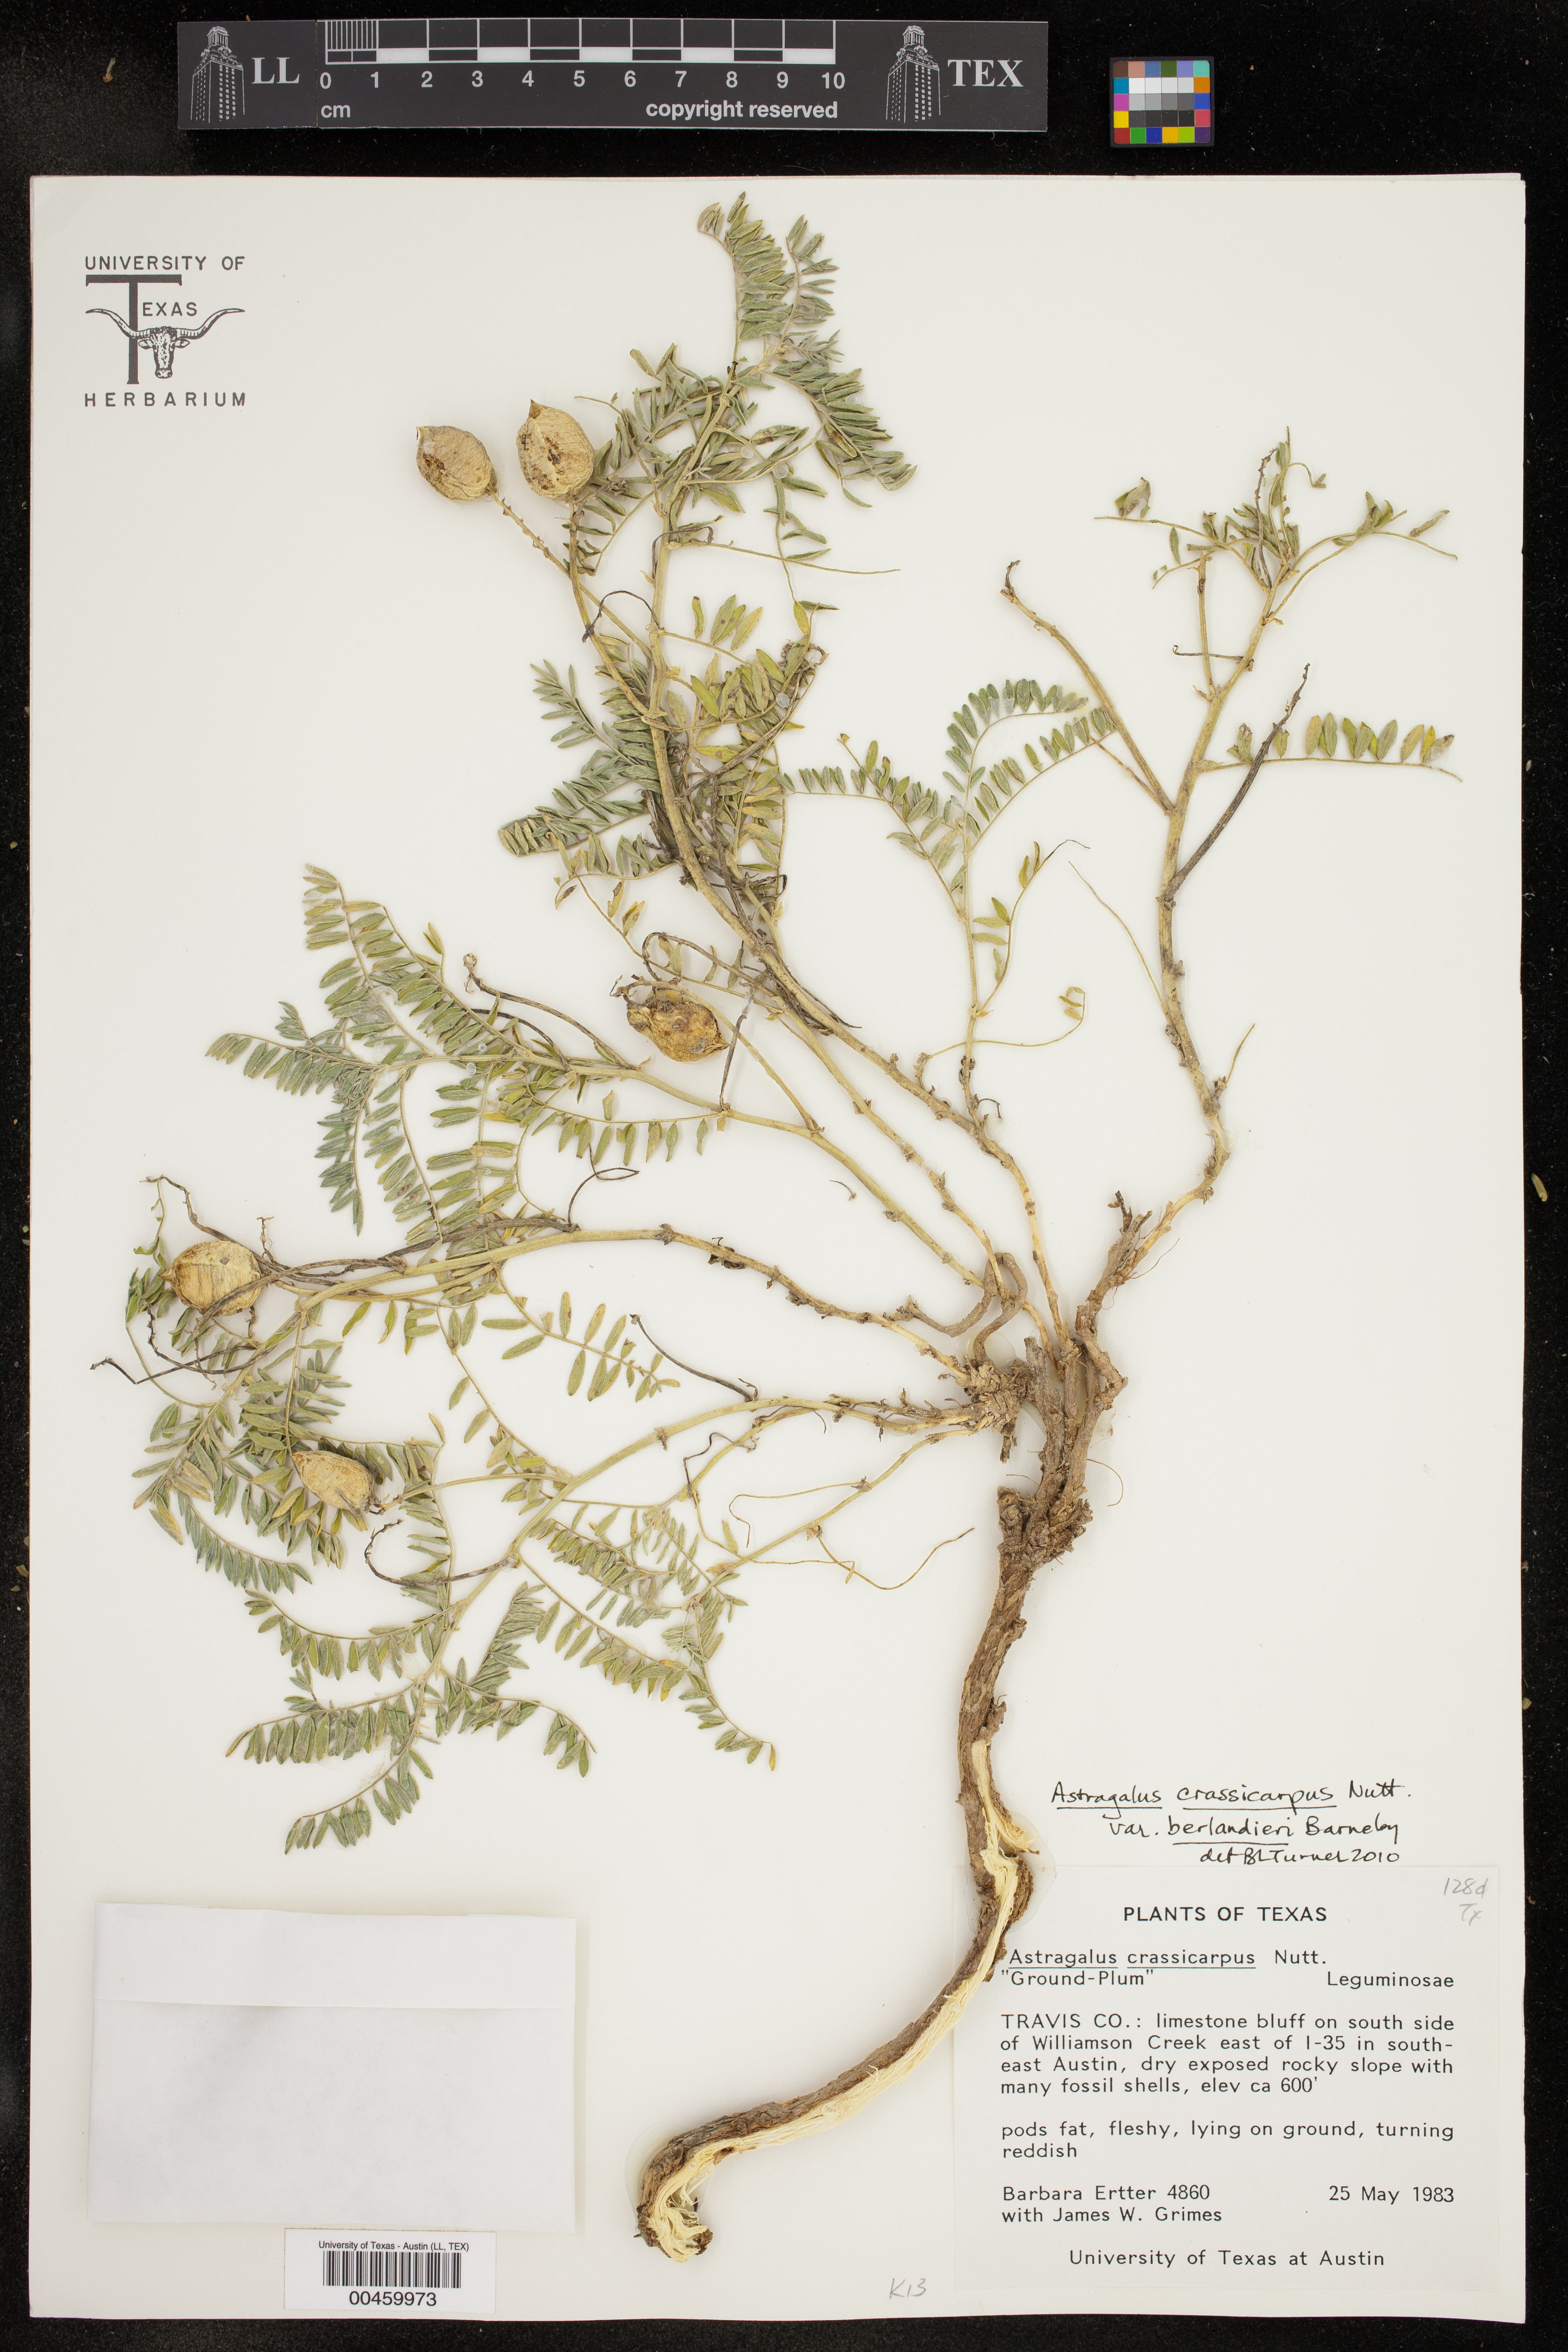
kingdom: Plantae
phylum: Tracheophyta
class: Magnoliopsida
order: Fabales
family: Fabaceae
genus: Astragalus
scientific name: Astragalus crassicarpus
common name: Ground-plum milk-vetch
